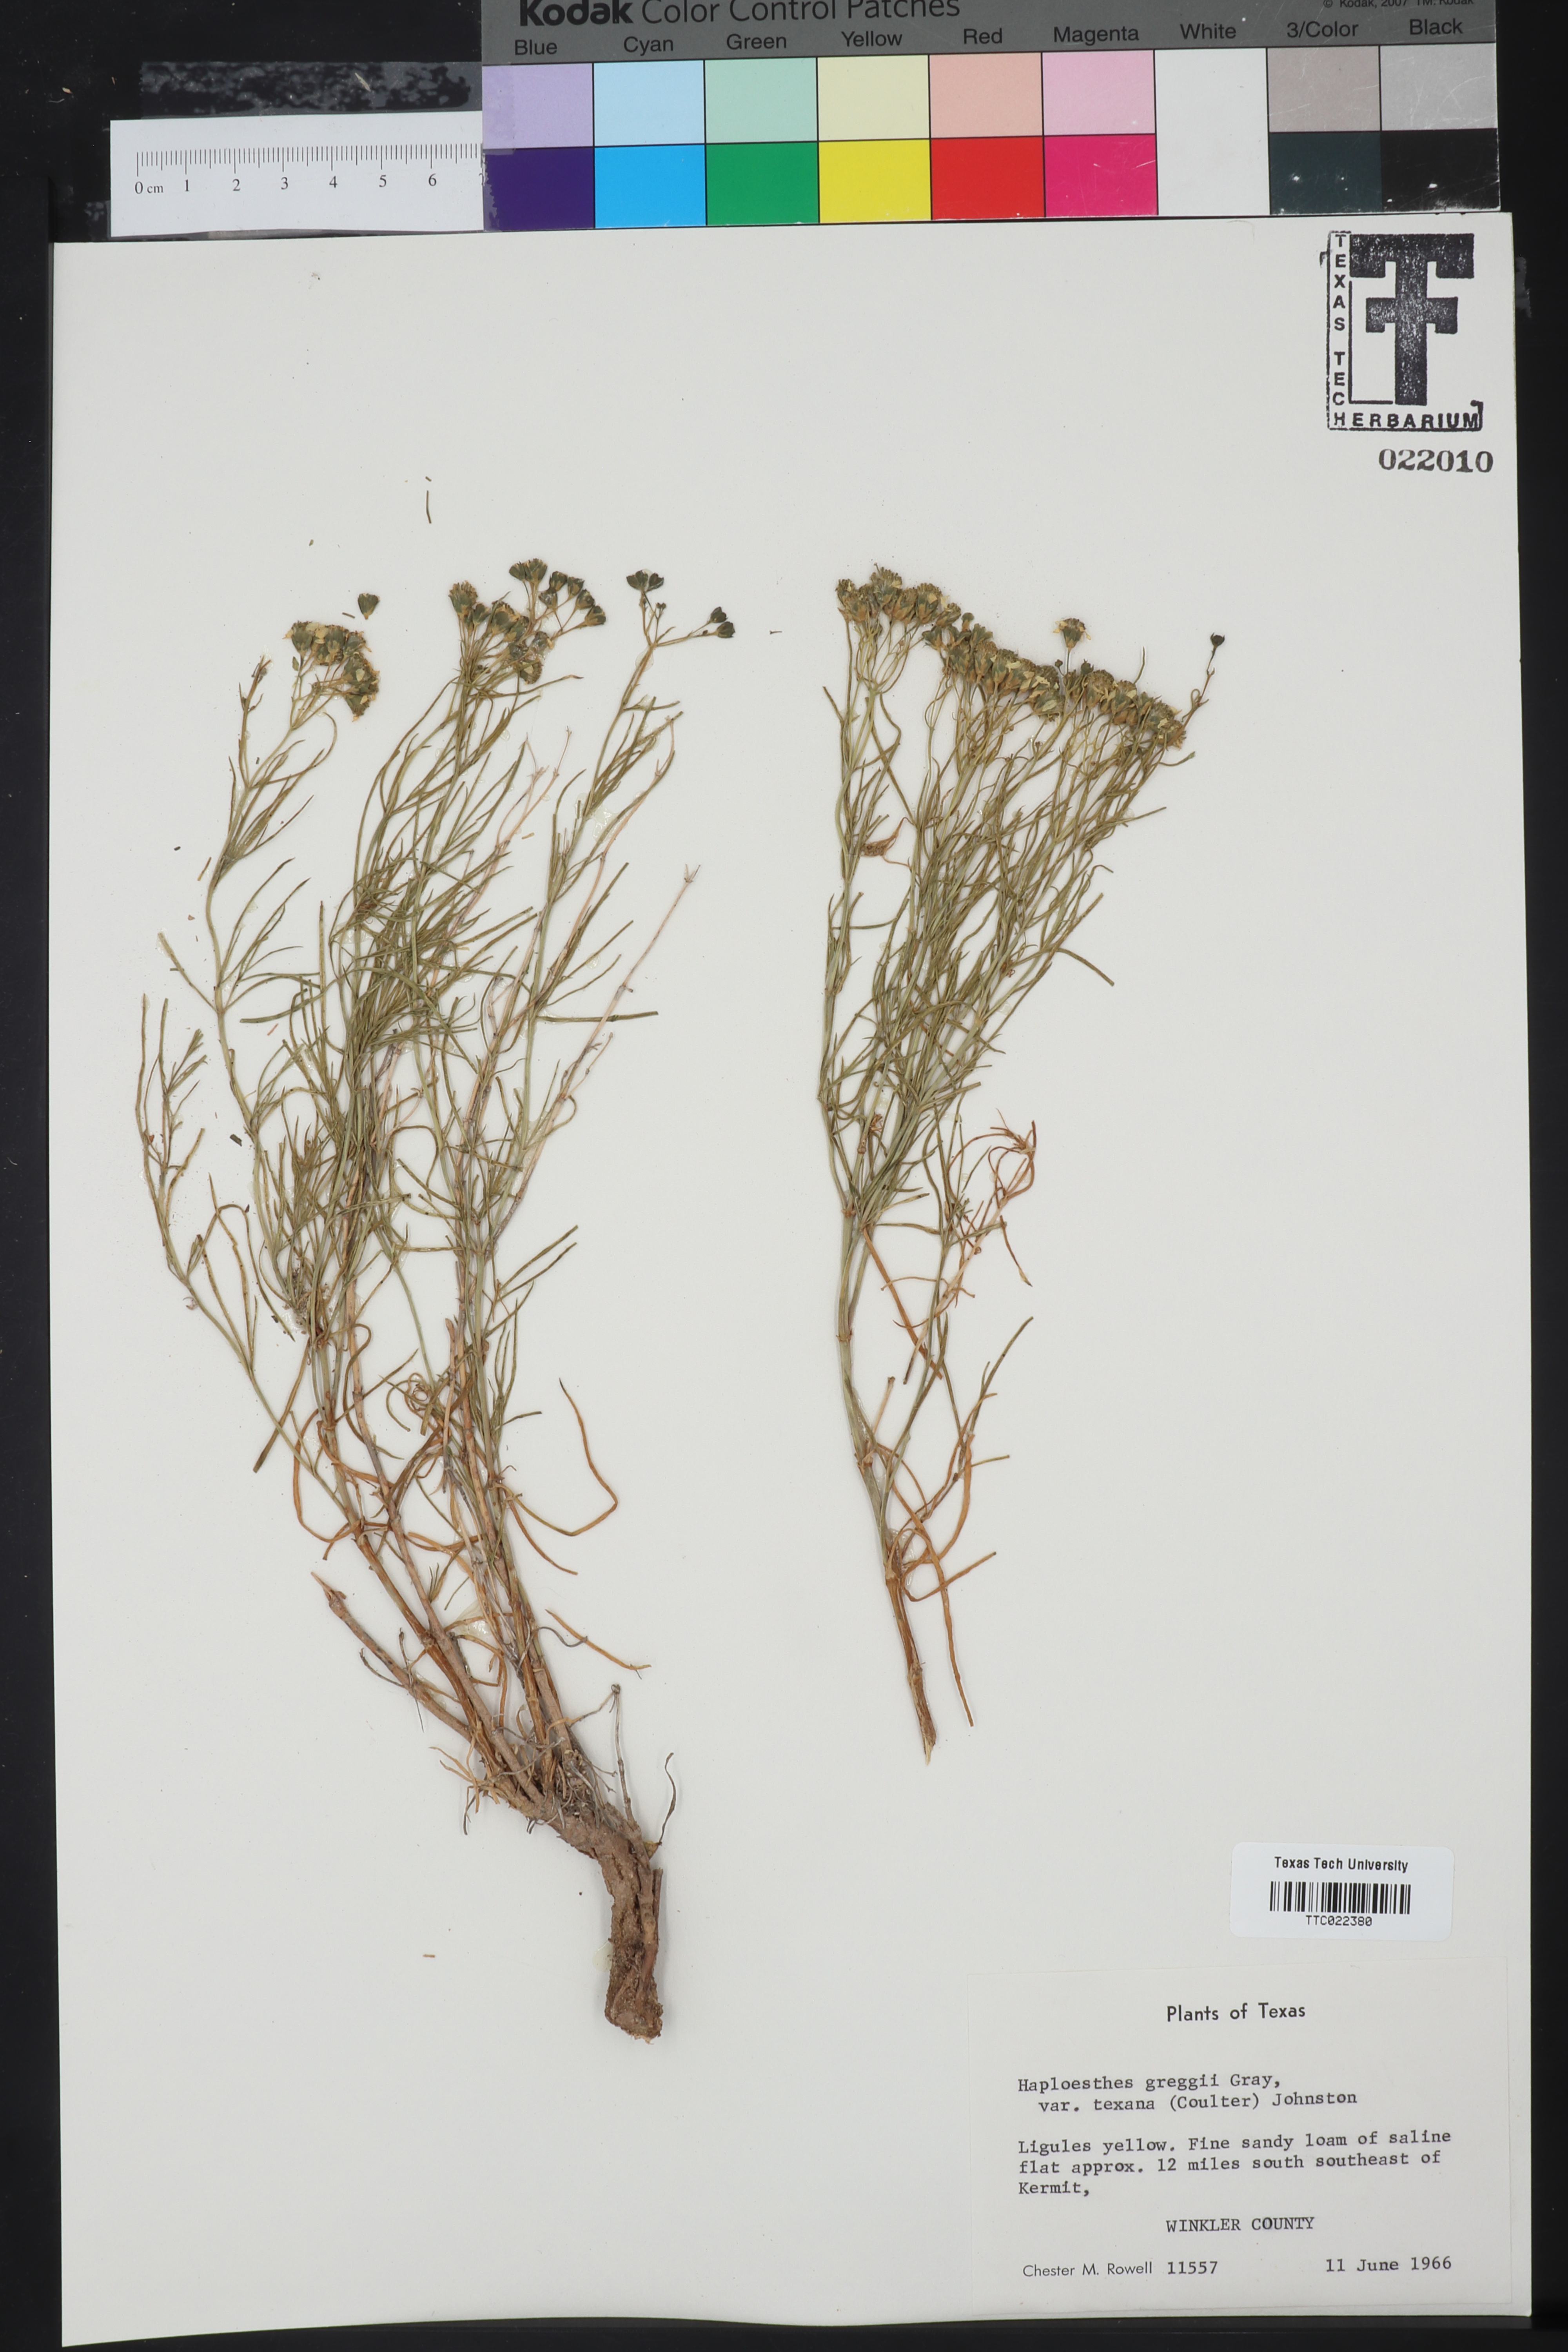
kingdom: Plantae
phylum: Tracheophyta
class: Magnoliopsida
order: Asterales
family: Asteraceae
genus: Haploesthes
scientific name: Haploesthes greggii
